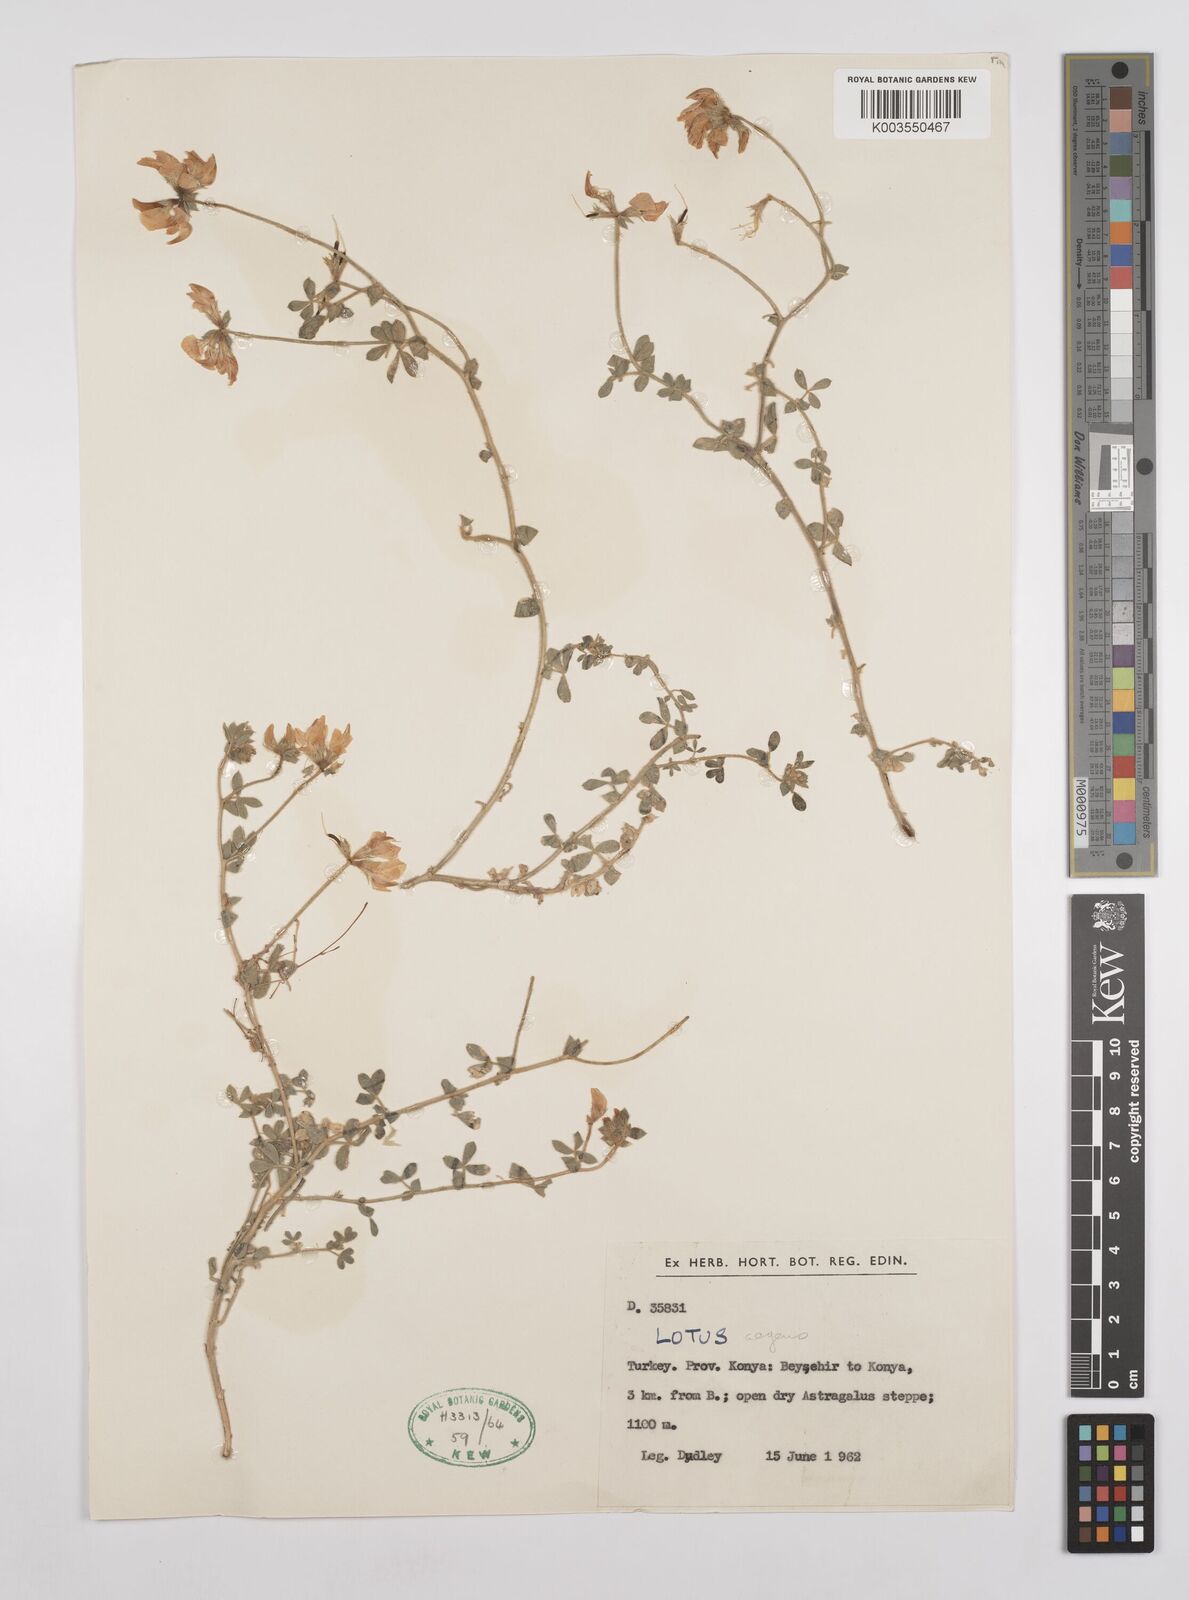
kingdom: Plantae
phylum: Tracheophyta
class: Magnoliopsida
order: Fabales
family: Fabaceae
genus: Lotus
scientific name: Lotus aegaeus
